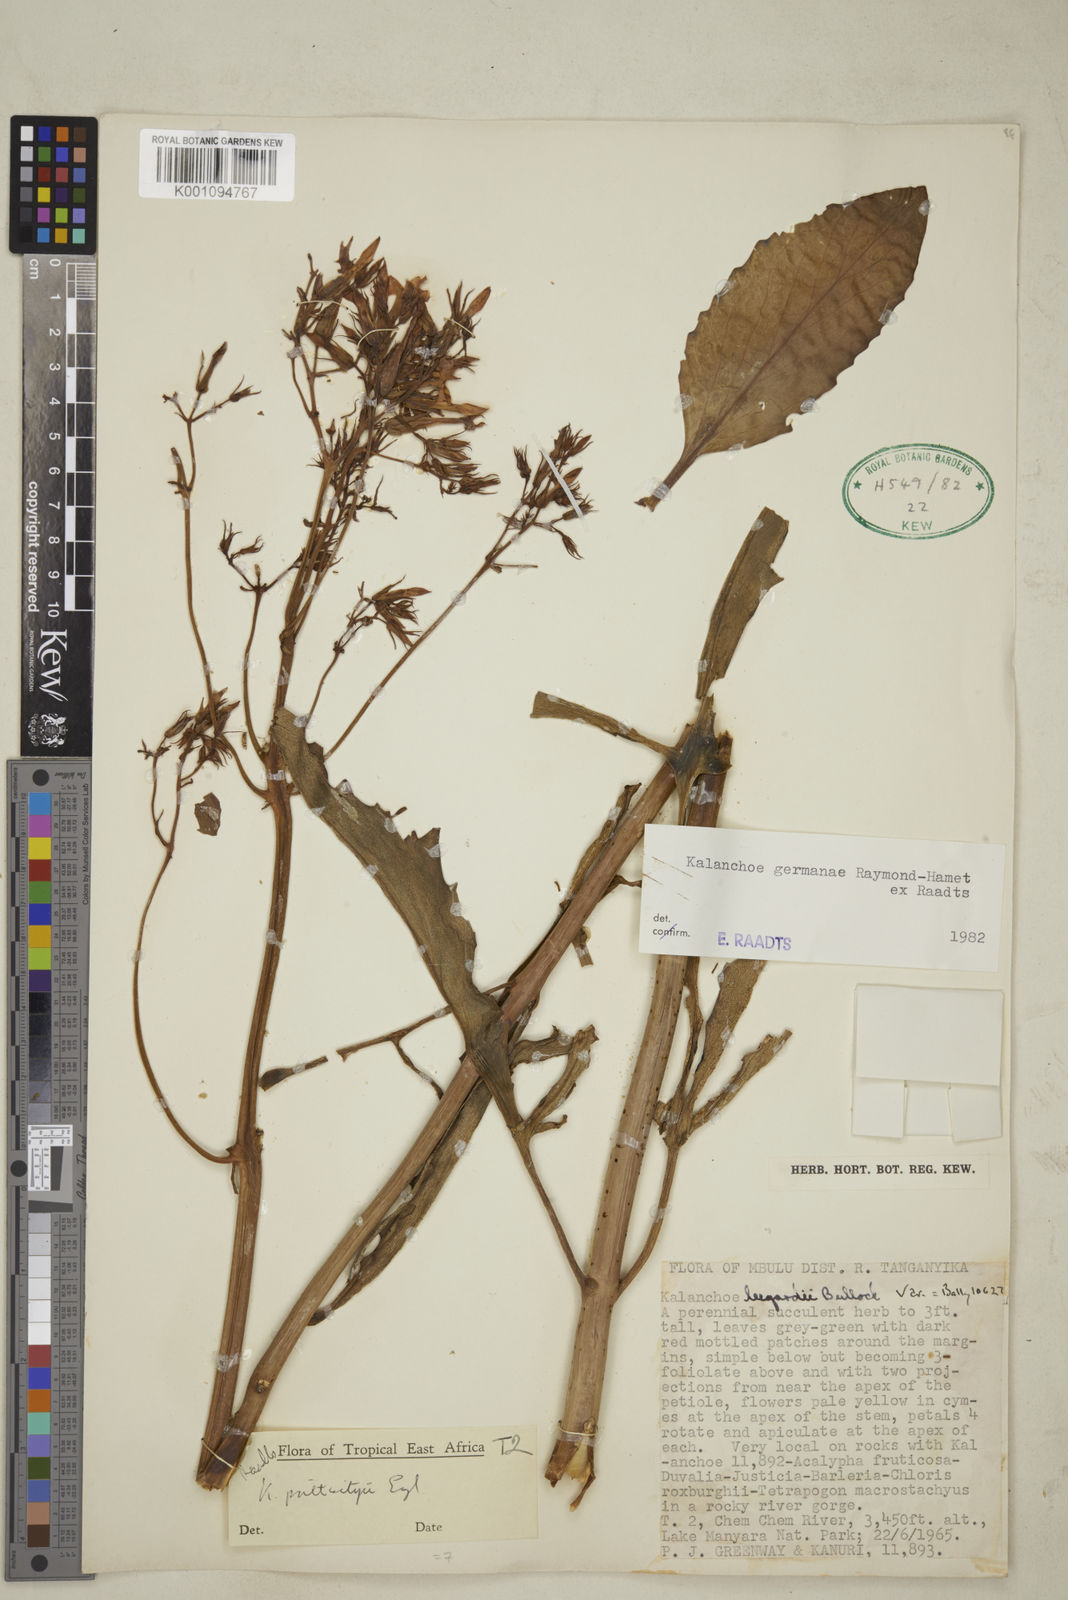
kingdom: Plantae
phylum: Tracheophyta
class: Magnoliopsida
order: Saxifragales
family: Crassulaceae
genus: Kalanchoe
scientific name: Kalanchoe germanae
